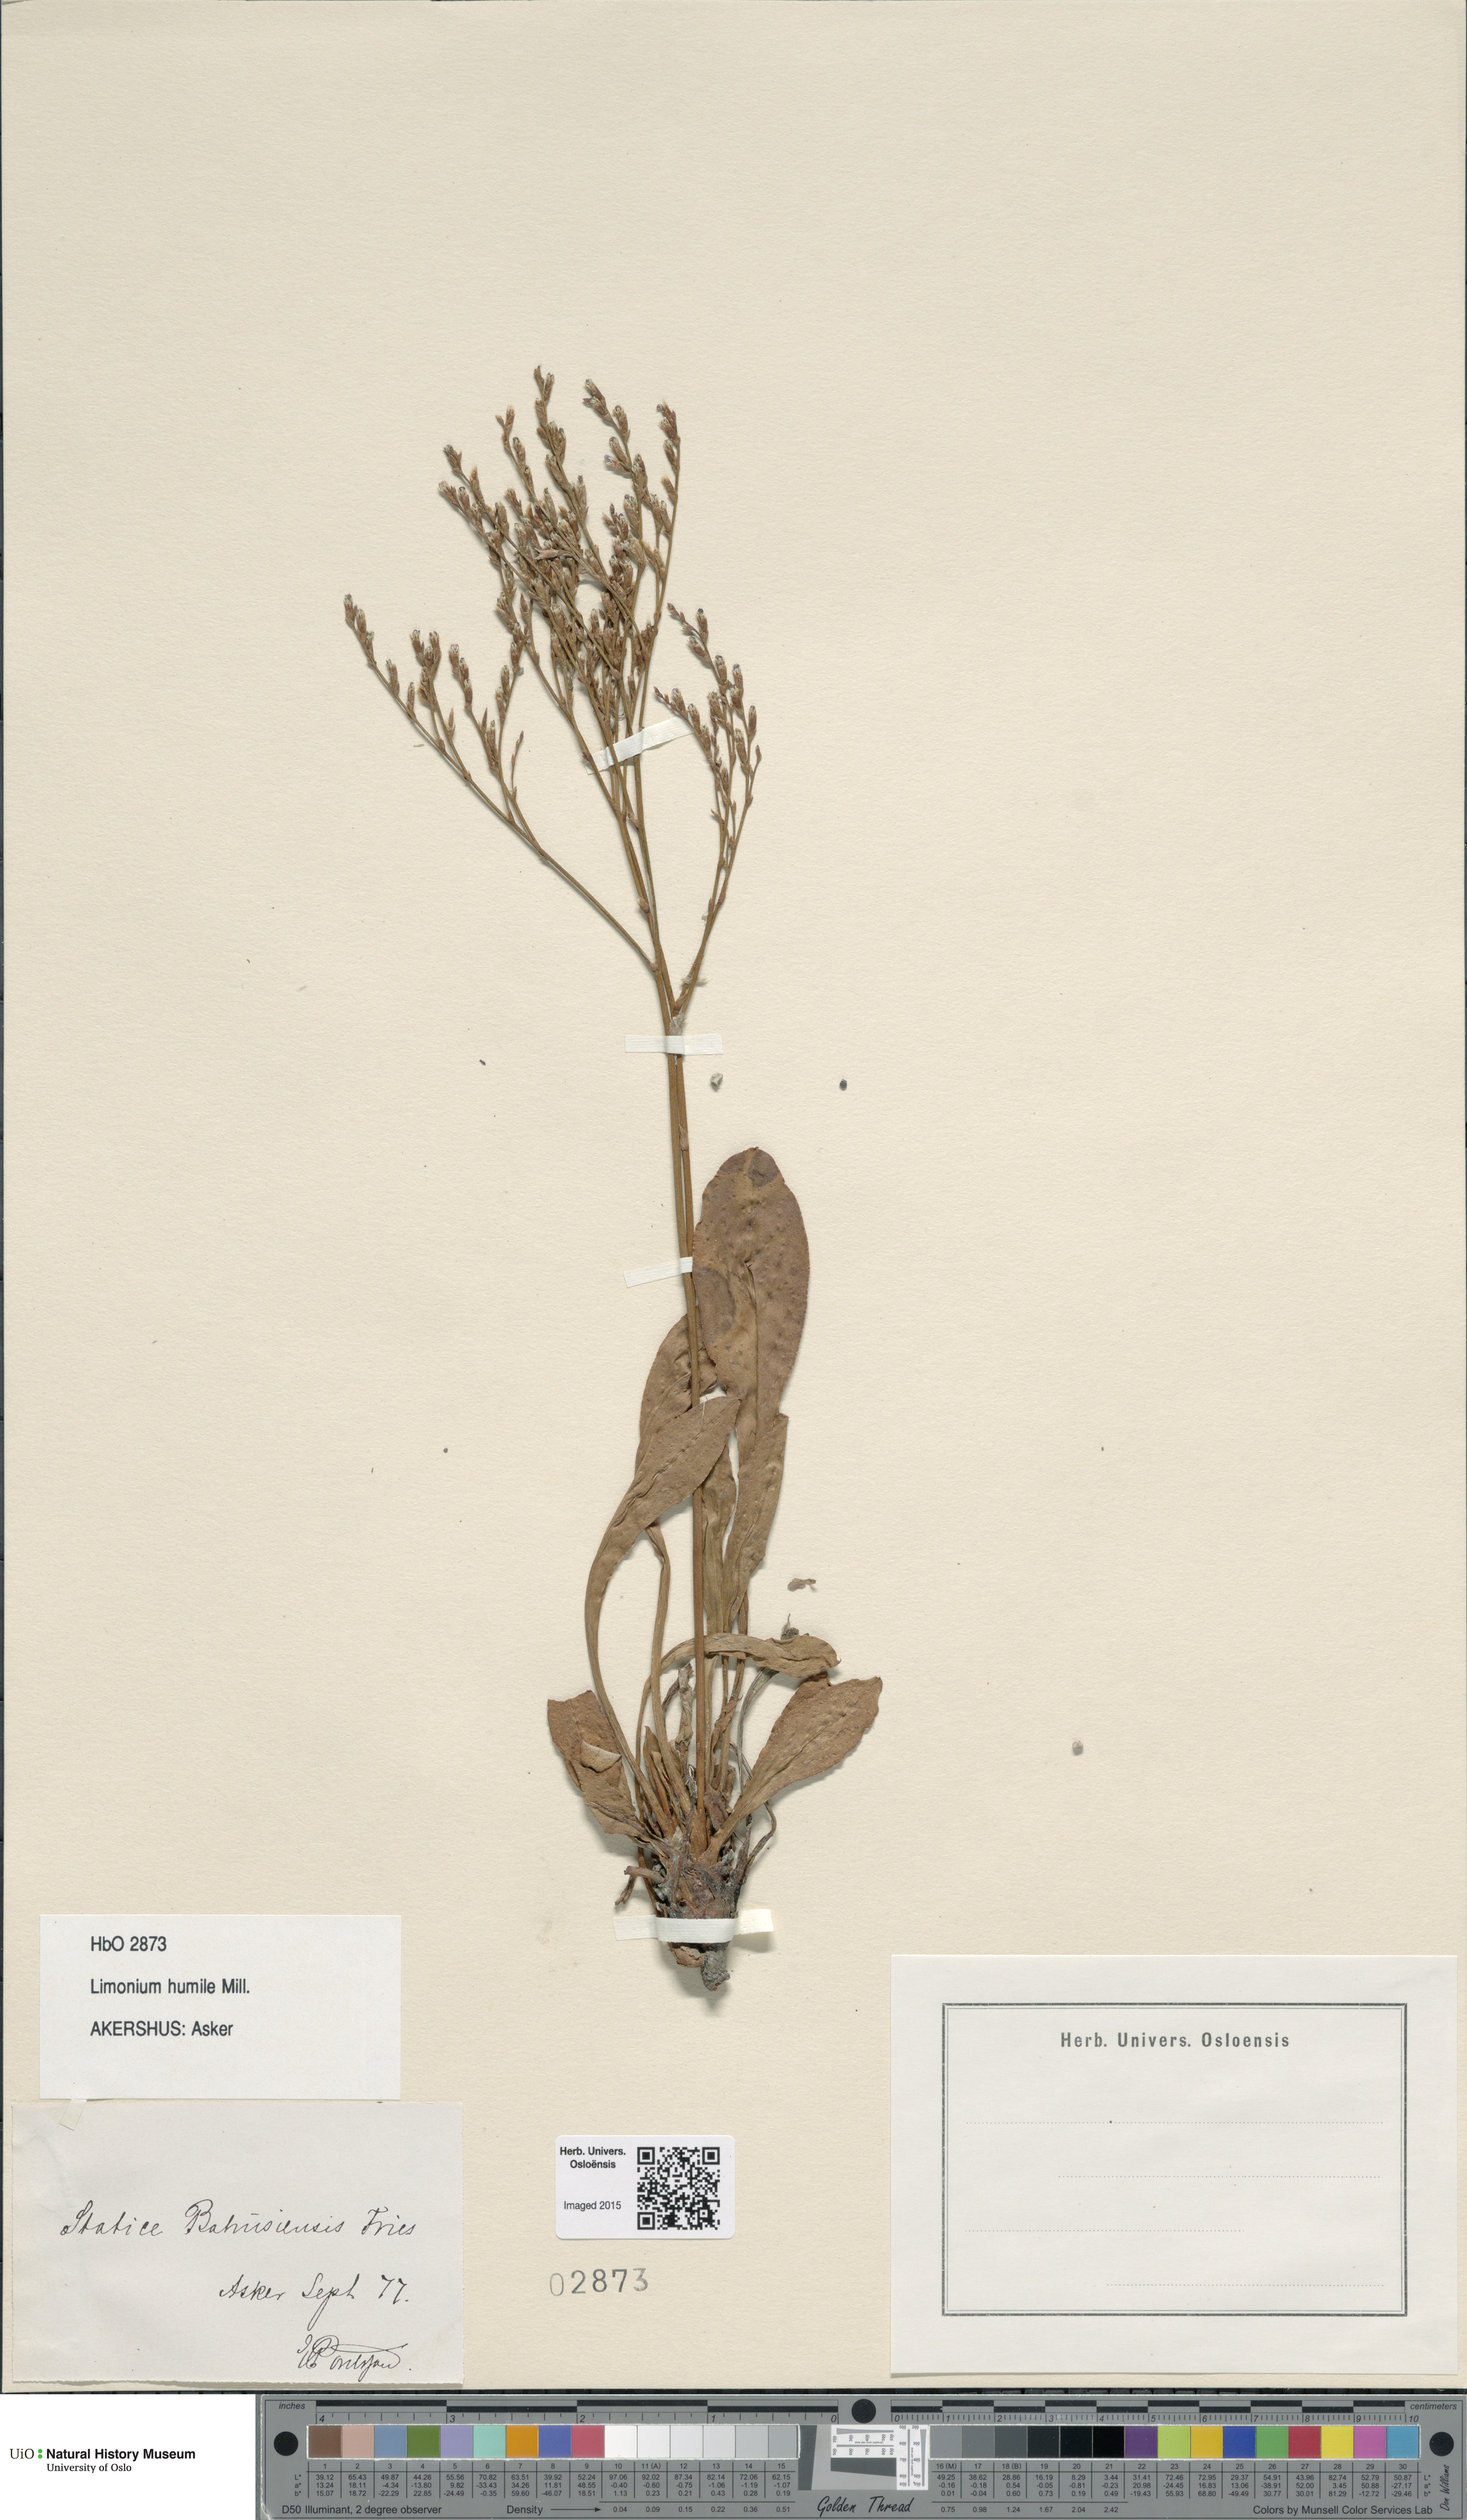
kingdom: Plantae
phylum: Tracheophyta
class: Magnoliopsida
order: Caryophyllales
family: Plumbaginaceae
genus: Limonium
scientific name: Limonium humile
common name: Lax-flowered sea-lavender
